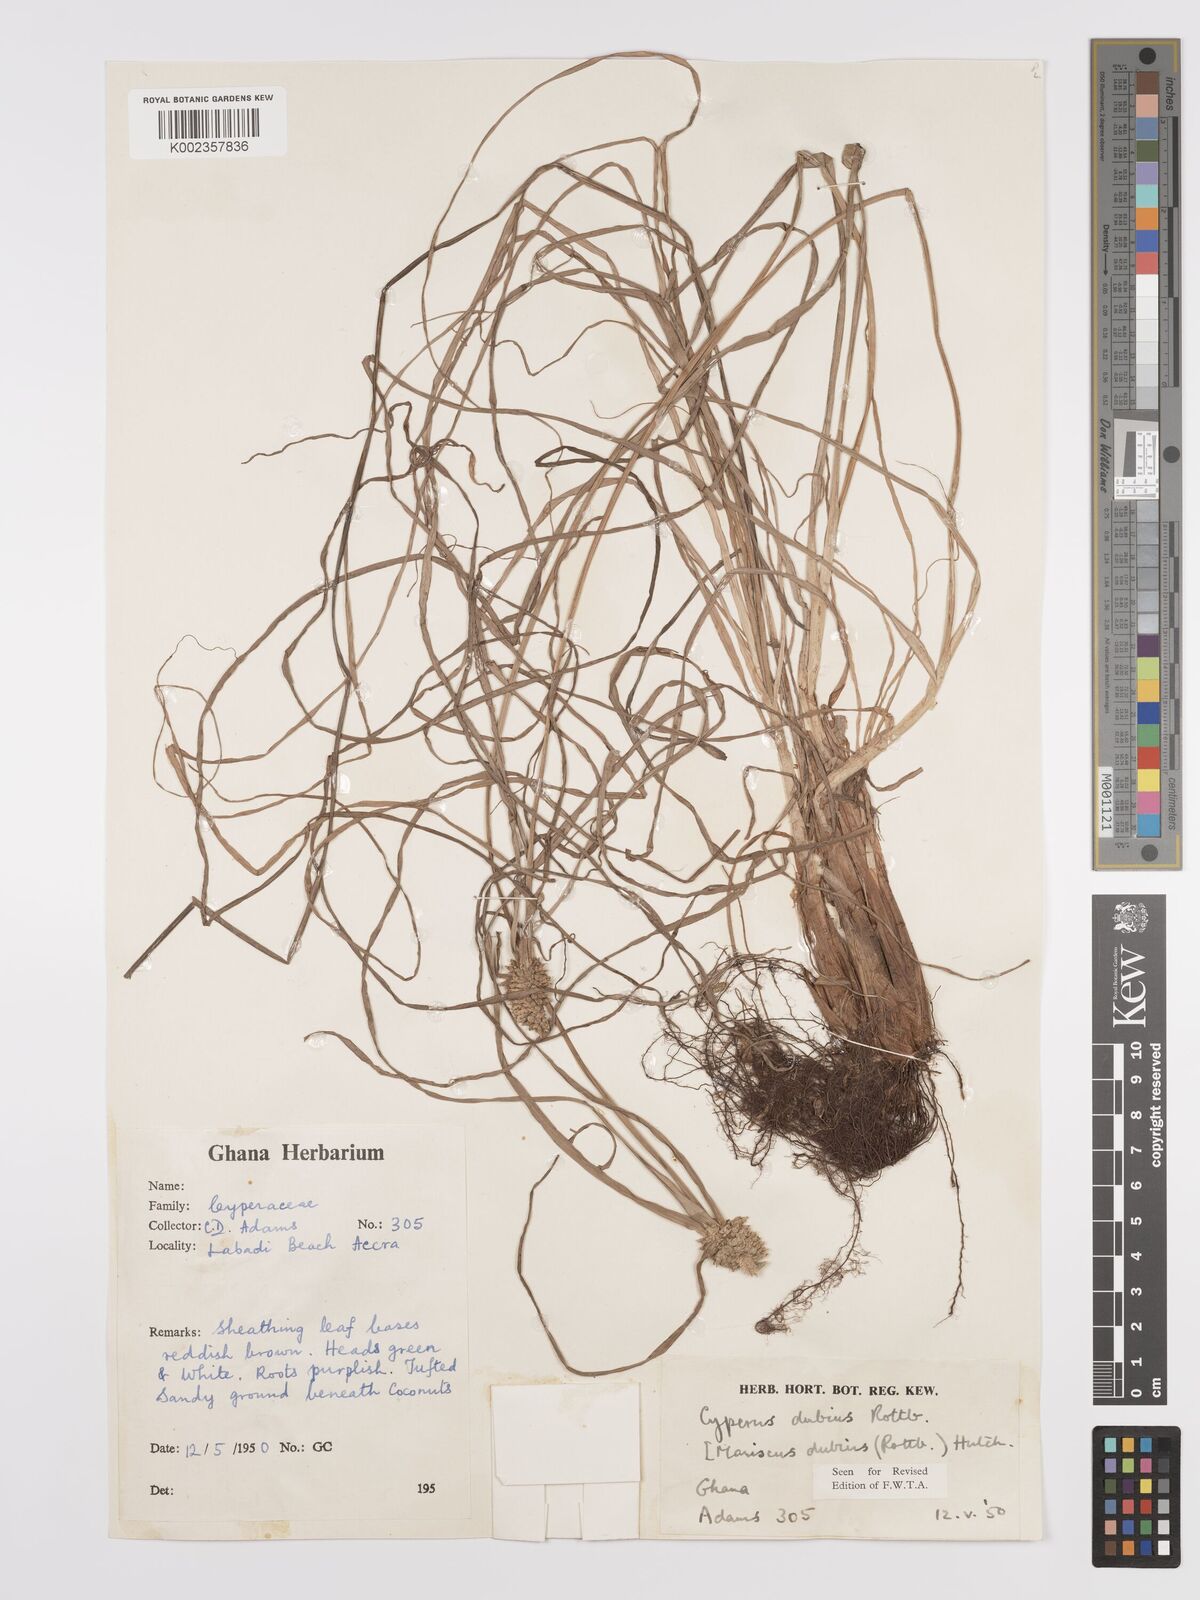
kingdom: Plantae
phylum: Tracheophyta
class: Liliopsida
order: Poales
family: Cyperaceae
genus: Cyperus
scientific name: Cyperus dubius
